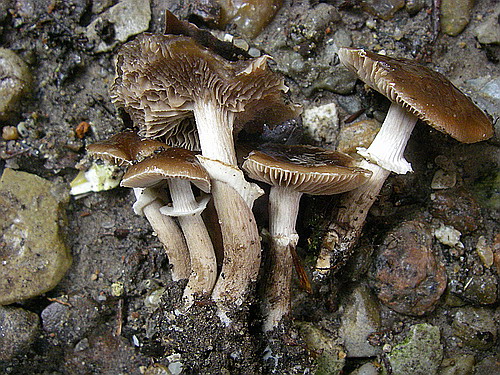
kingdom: Fungi
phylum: Basidiomycota
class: Agaricomycetes
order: Agaricales
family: Tubariaceae
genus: Cyclocybe
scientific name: Cyclocybe erebia
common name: mørk agerhat
